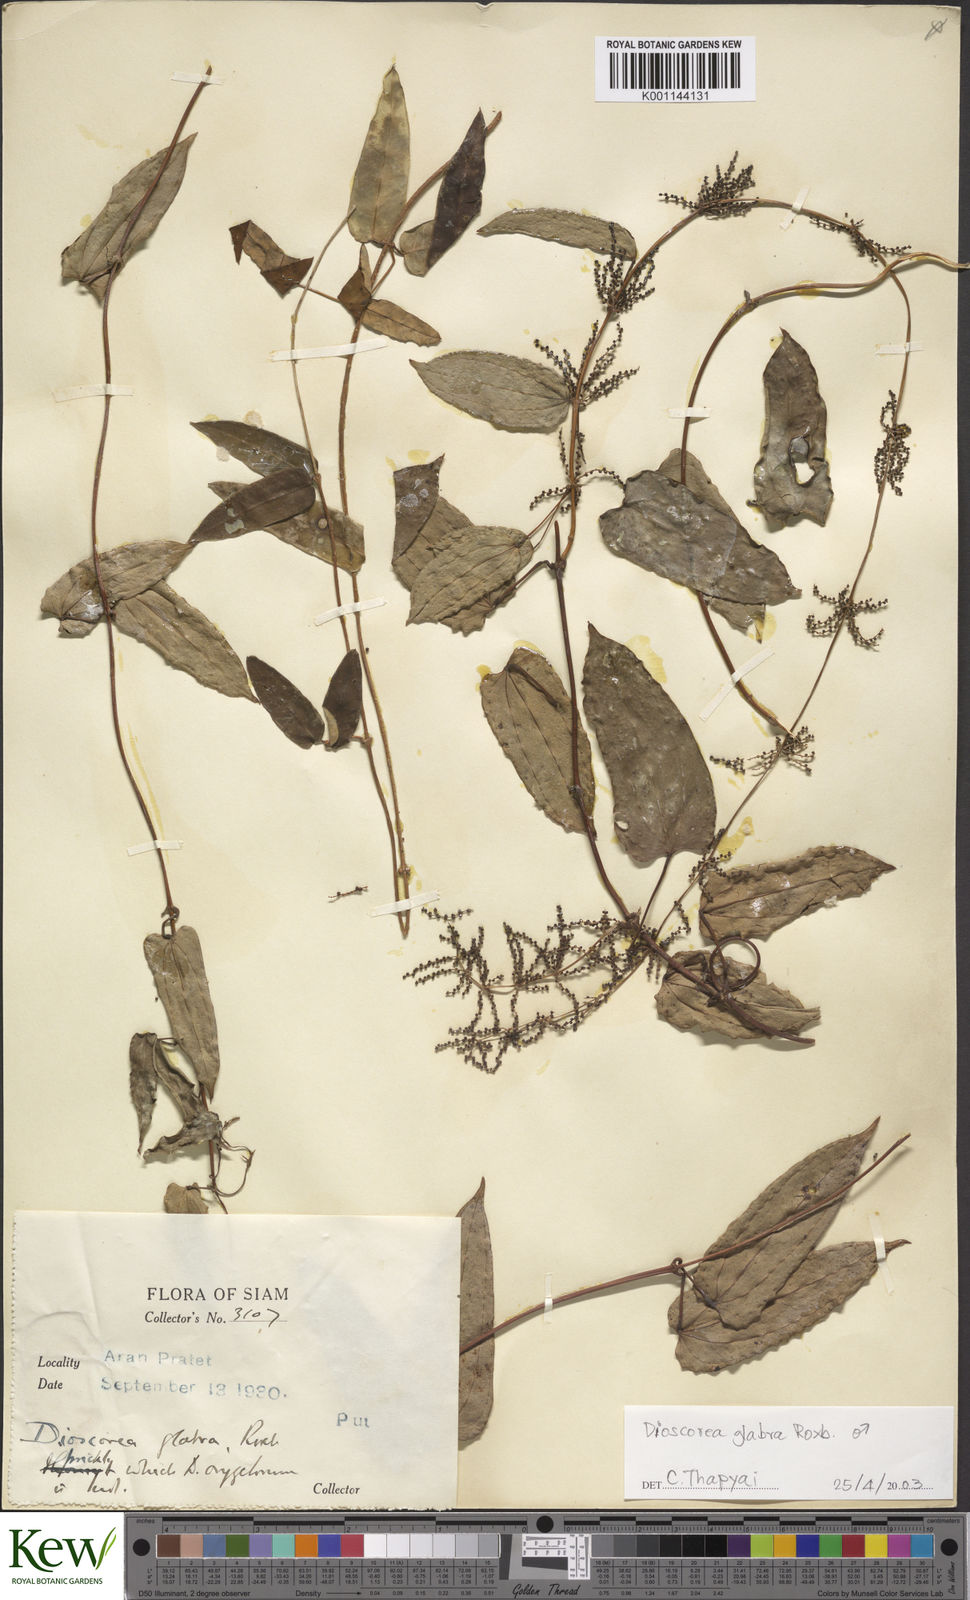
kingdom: Plantae
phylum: Tracheophyta
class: Liliopsida
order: Dioscoreales
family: Dioscoreaceae
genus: Dioscorea
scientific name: Dioscorea glabra
